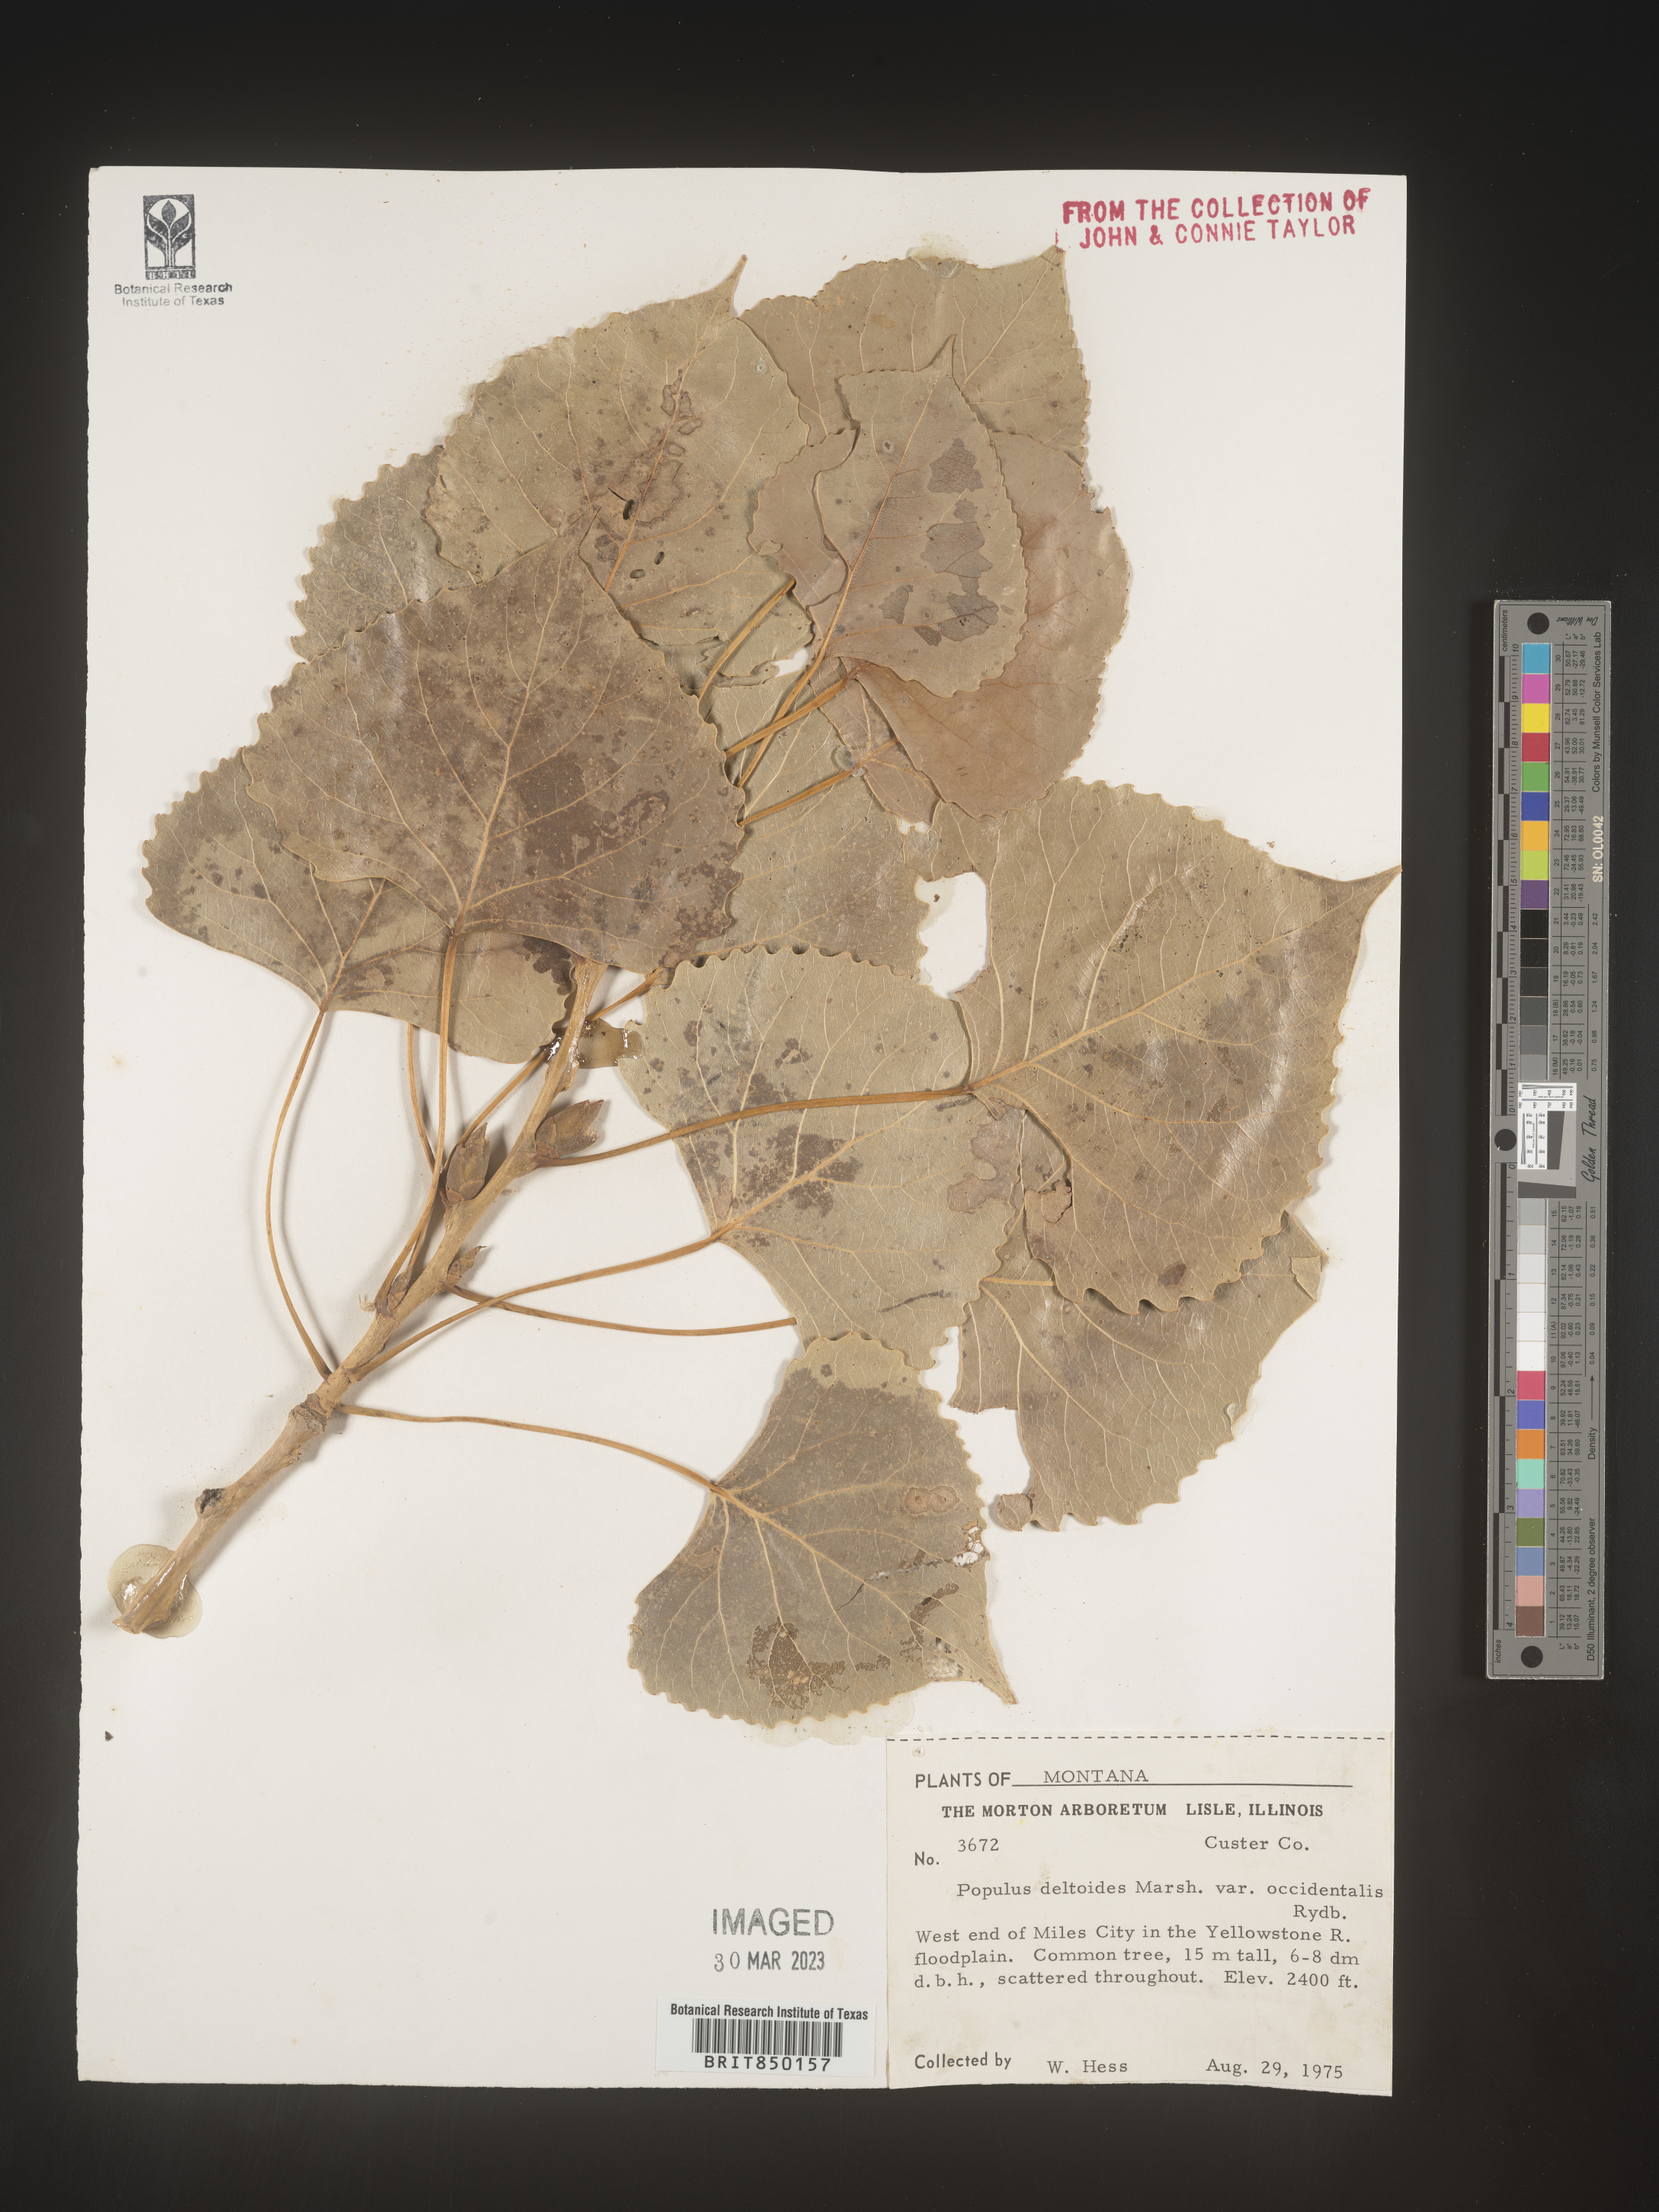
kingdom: Plantae
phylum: Tracheophyta
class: Magnoliopsida
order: Malpighiales
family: Salicaceae
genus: Populus
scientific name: Populus deltoides
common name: Eastern cottonwood
